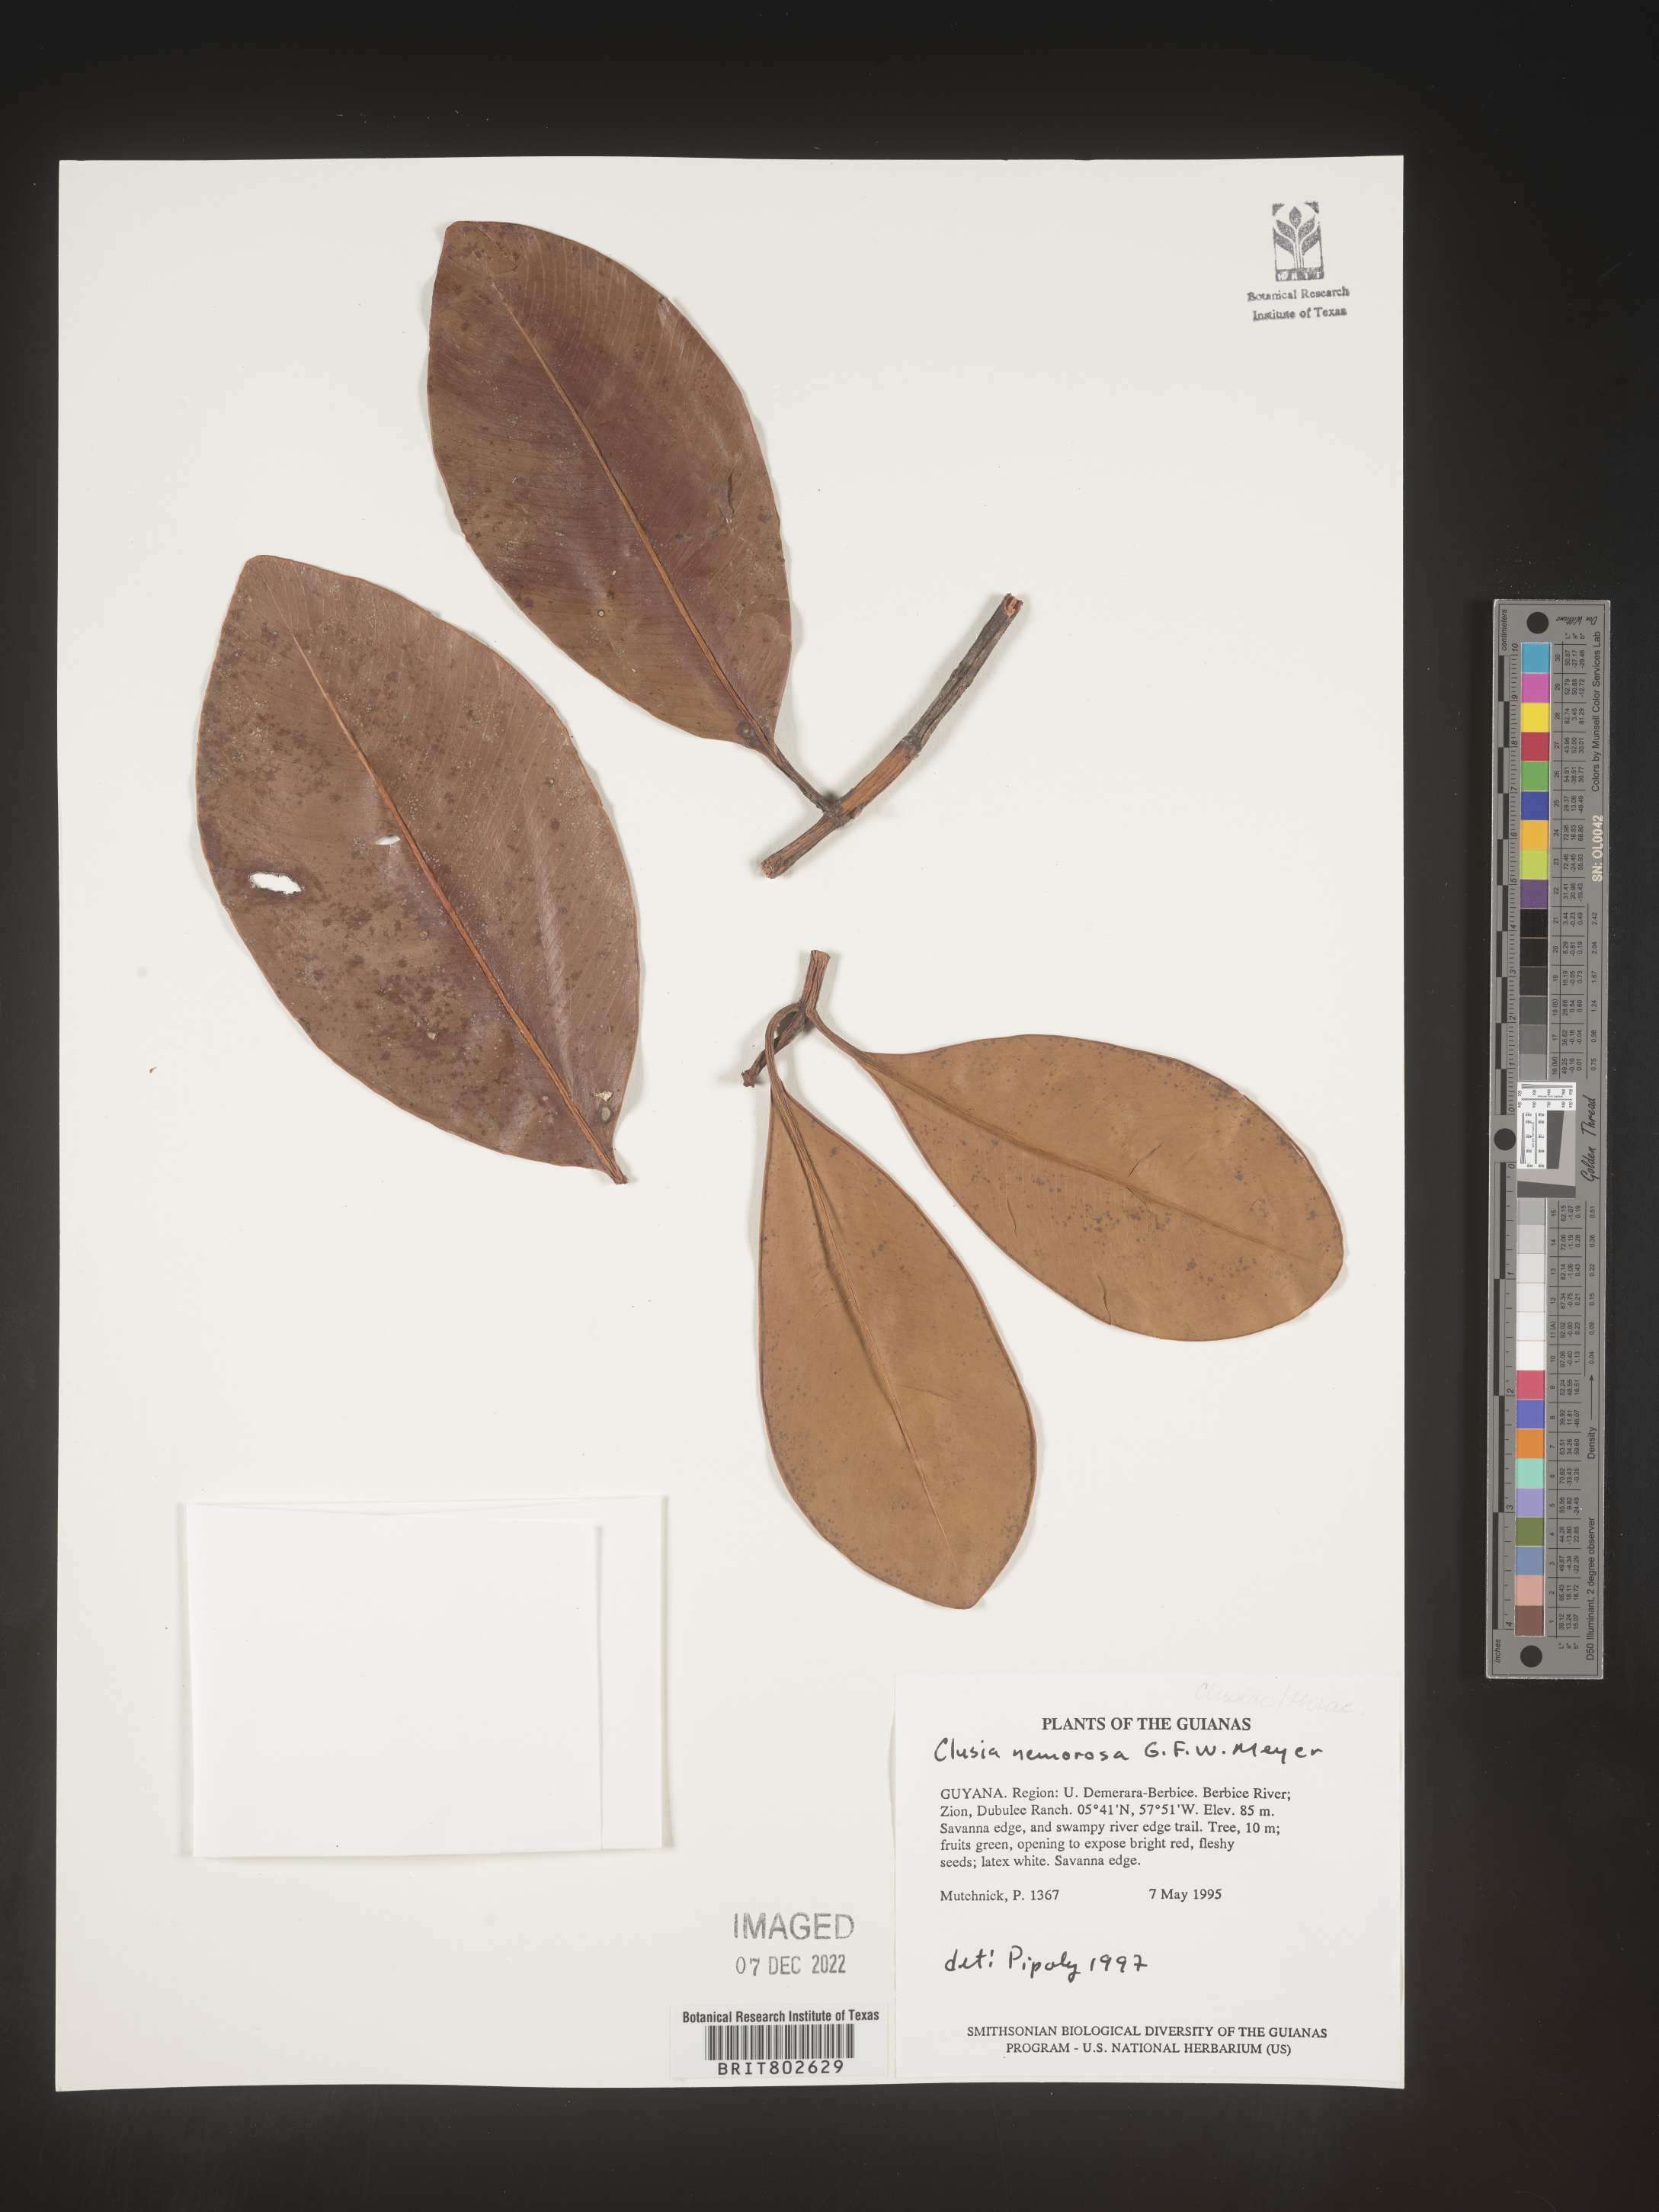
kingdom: Plantae
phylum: Tracheophyta
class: Magnoliopsida
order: Malpighiales
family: Clusiaceae
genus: Clusia
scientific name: Clusia nemorosa
